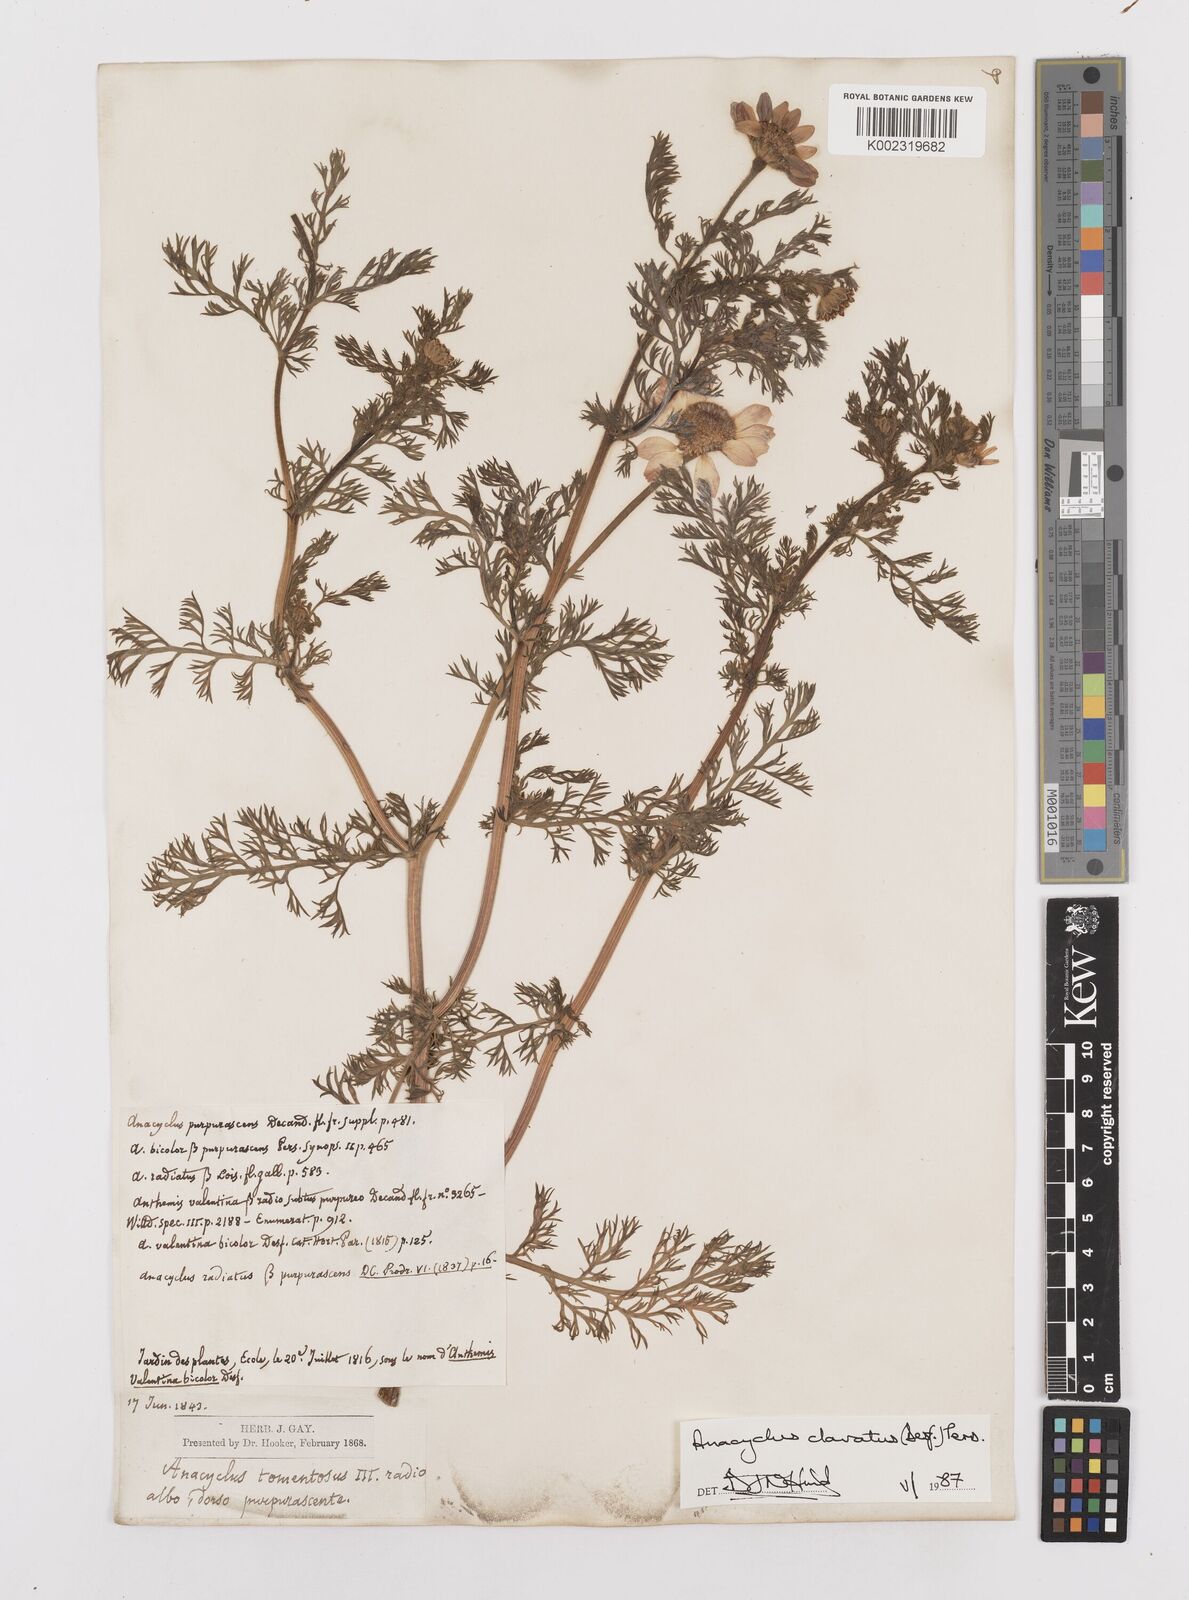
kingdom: Plantae
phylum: Tracheophyta
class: Magnoliopsida
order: Asterales
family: Asteraceae
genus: Anacyclus
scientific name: Anacyclus clavatus
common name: Whitebuttons
